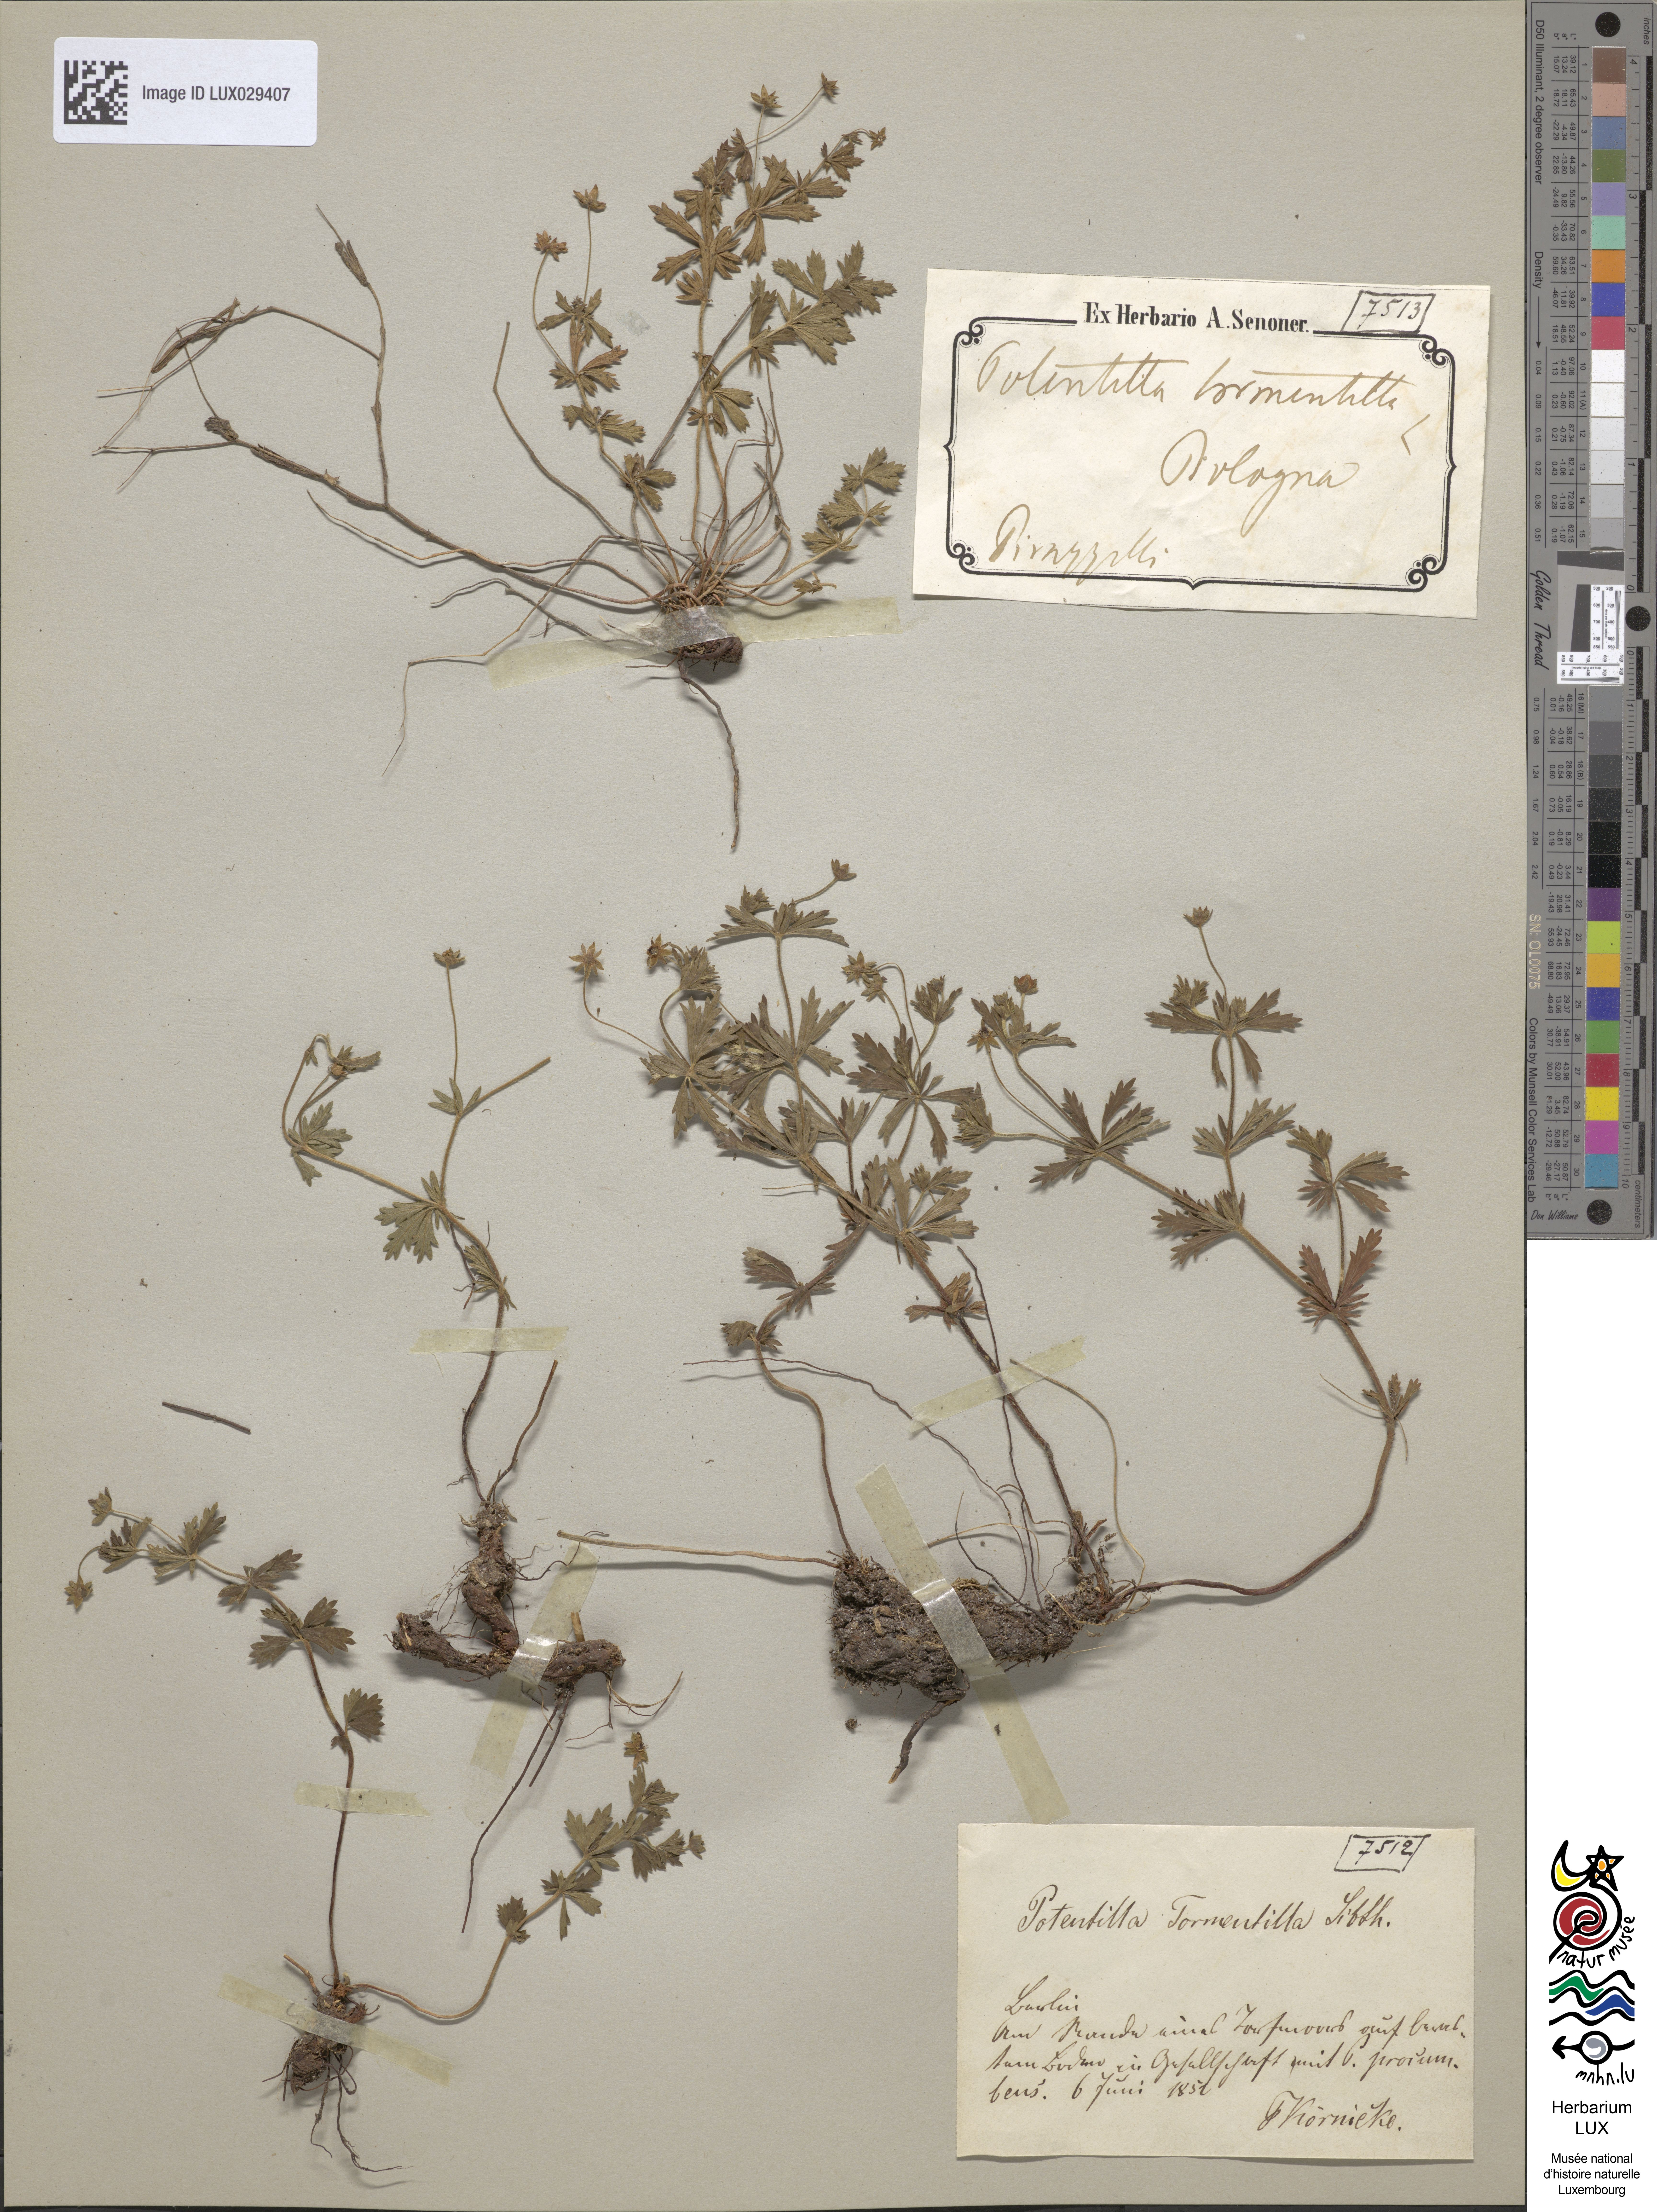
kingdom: Plantae
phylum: Tracheophyta
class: Magnoliopsida
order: Rosales
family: Rosaceae
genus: Potentilla
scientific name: Potentilla erecta
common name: Tormentil
